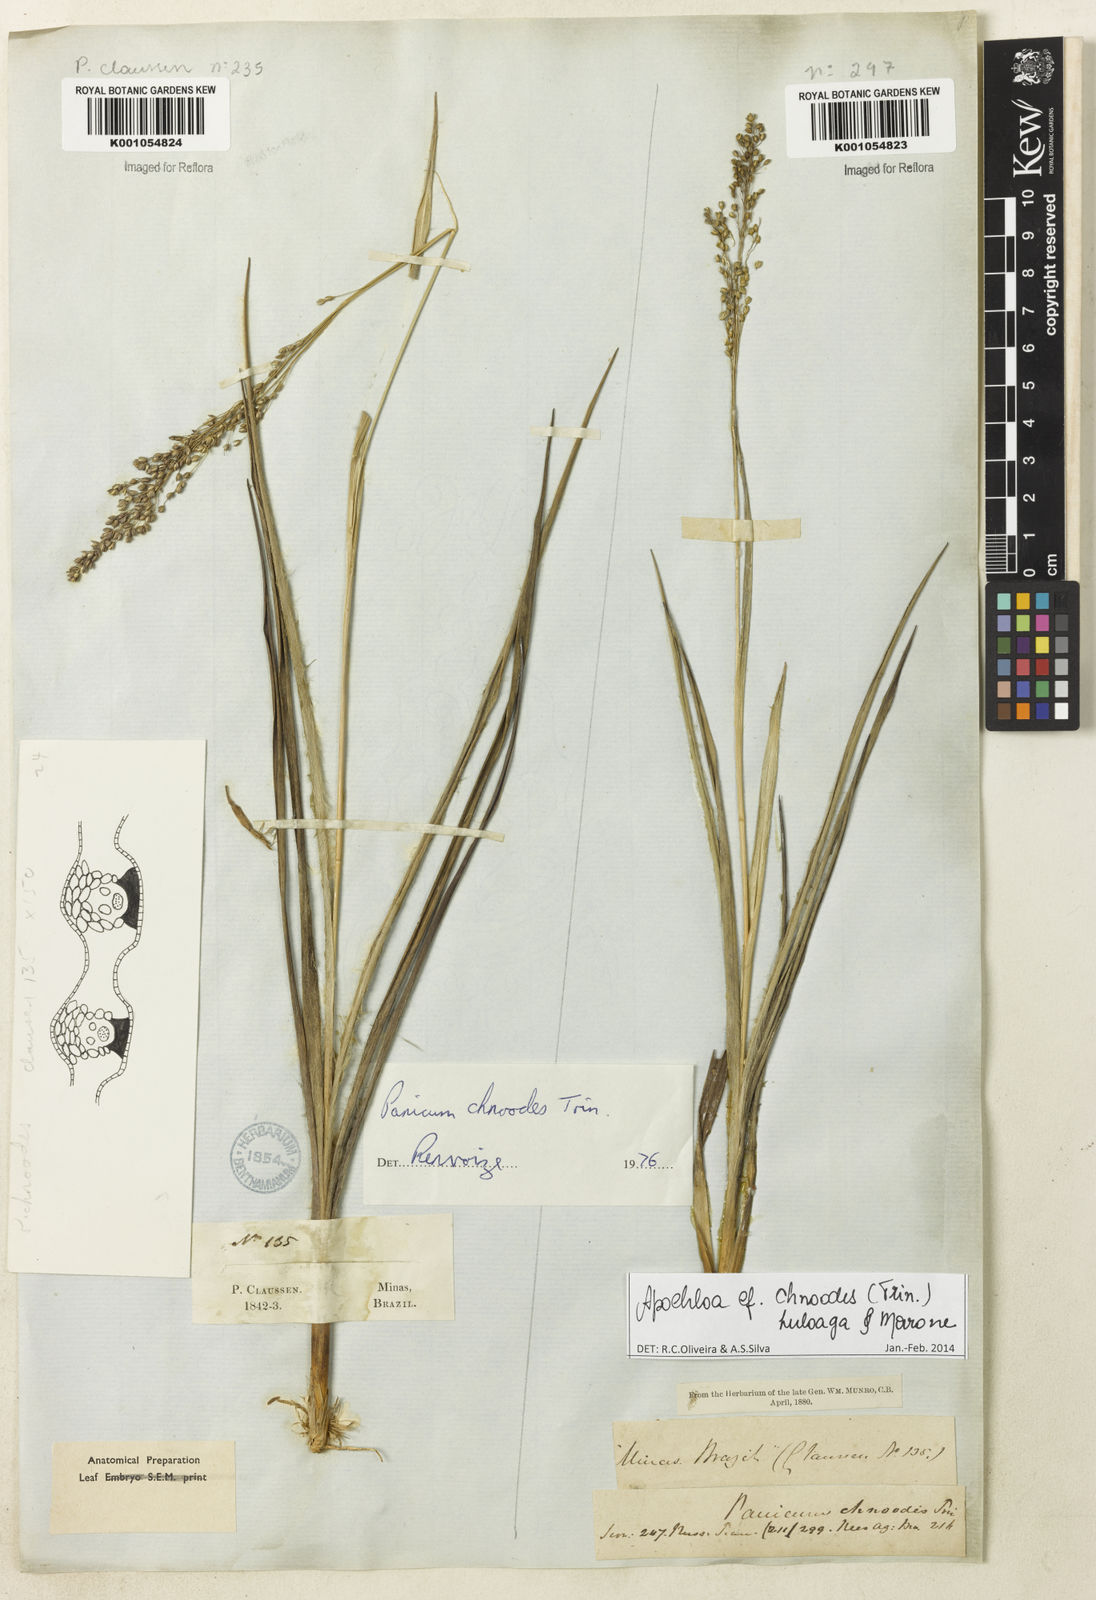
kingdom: Plantae
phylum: Tracheophyta
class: Liliopsida
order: Poales
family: Poaceae
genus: Apochloa
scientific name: Apochloa chnoodes
